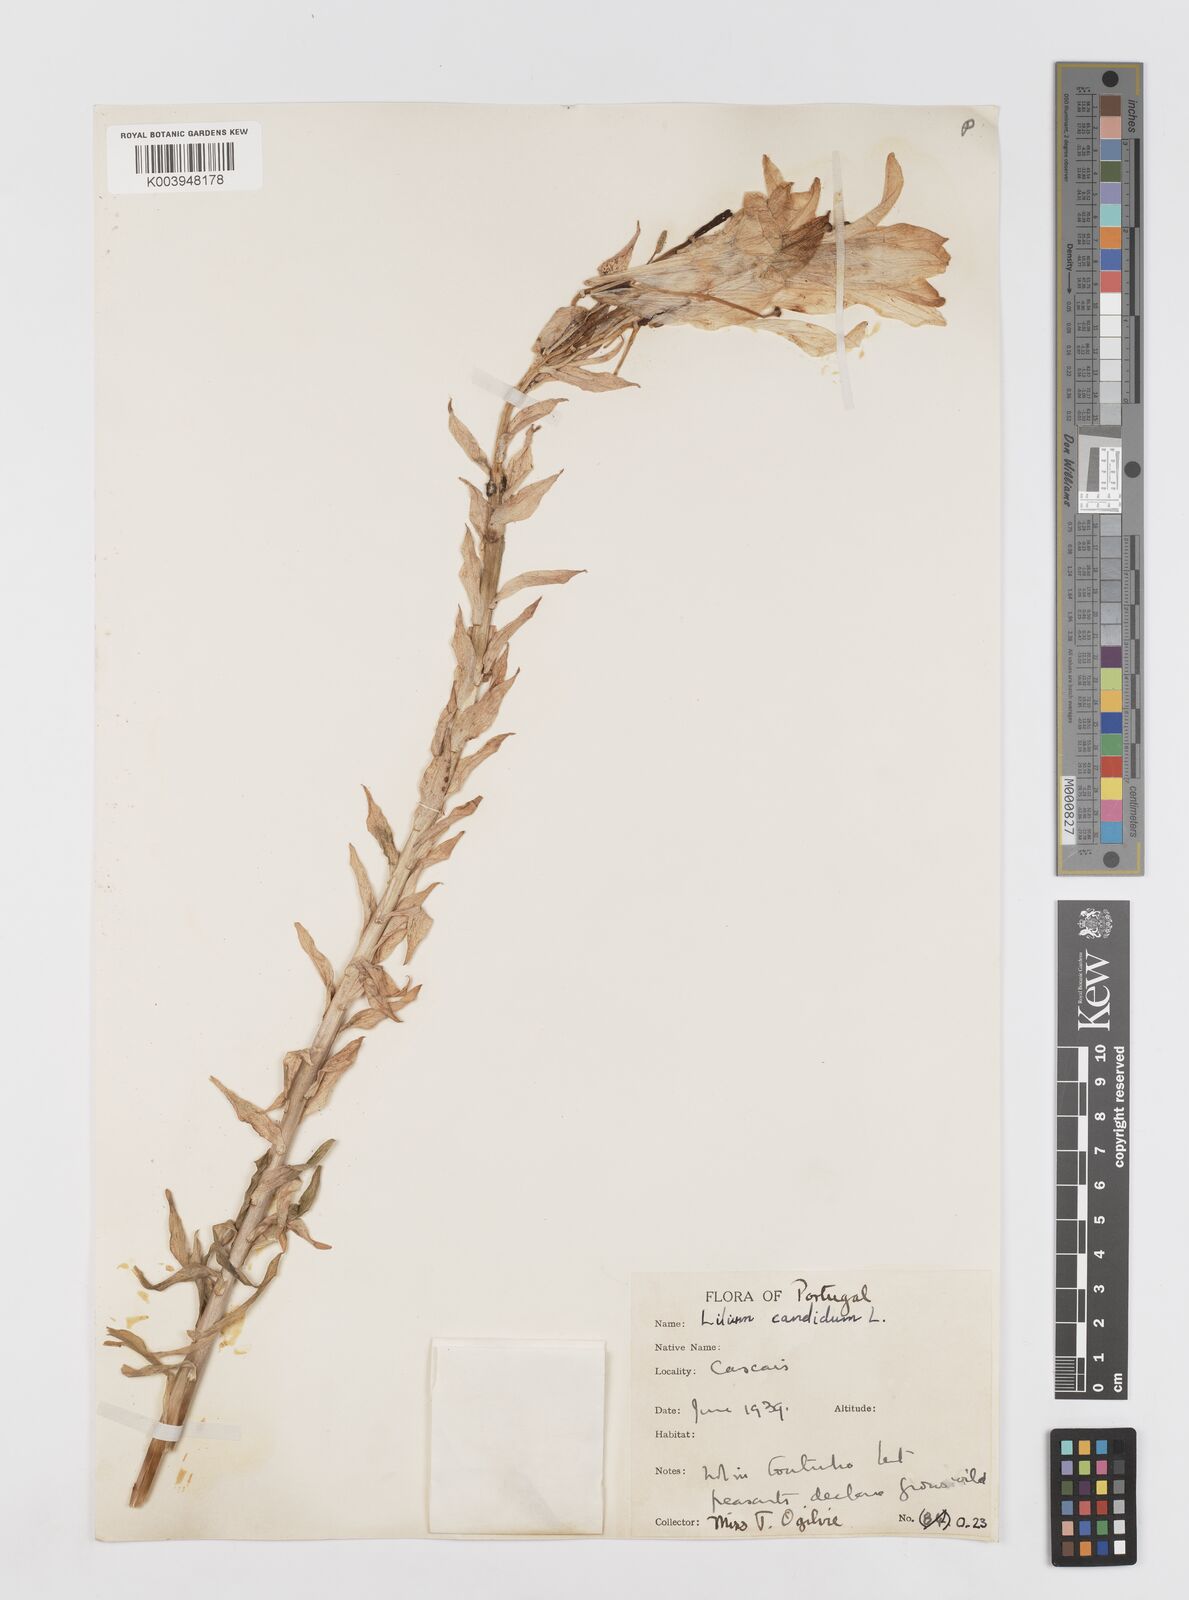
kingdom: Plantae
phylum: Tracheophyta
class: Liliopsida
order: Liliales
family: Liliaceae
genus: Lilium
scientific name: Lilium candidum
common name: Madonna lily
